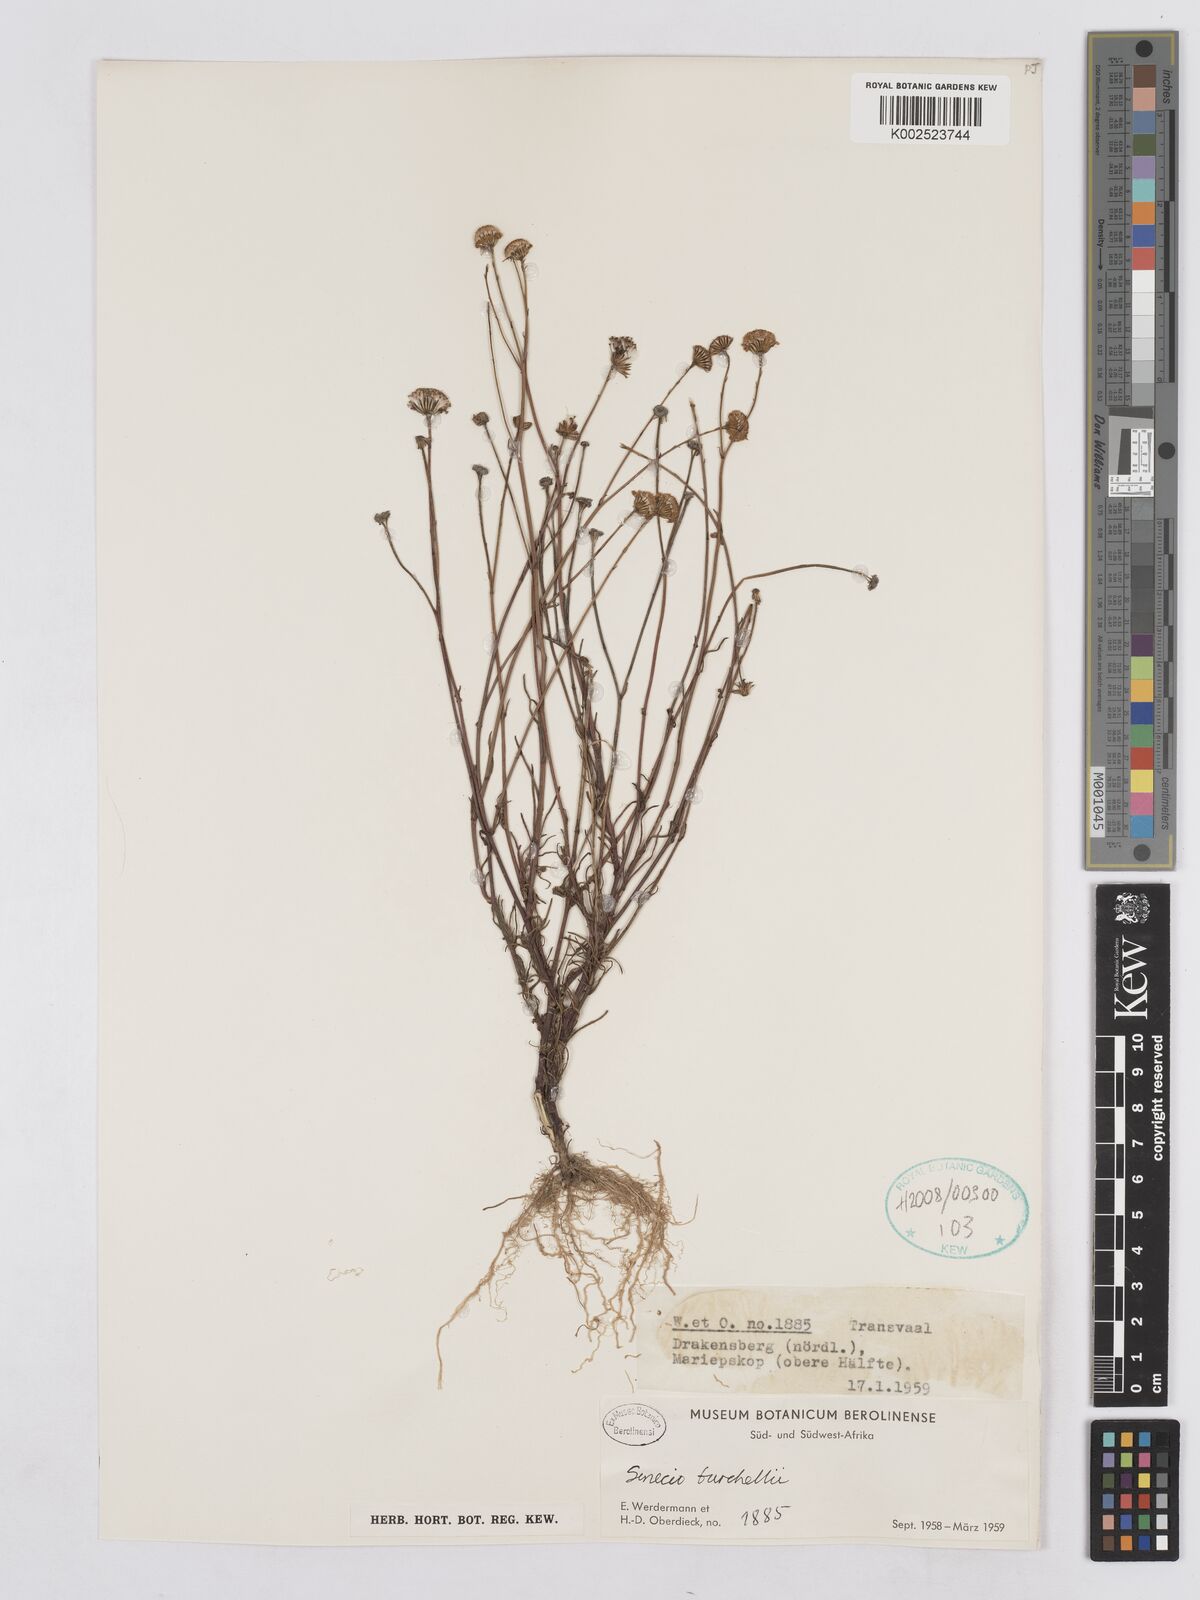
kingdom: Plantae
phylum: Tracheophyta
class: Magnoliopsida
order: Asterales
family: Asteraceae
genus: Senecio
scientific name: Senecio burchellii
